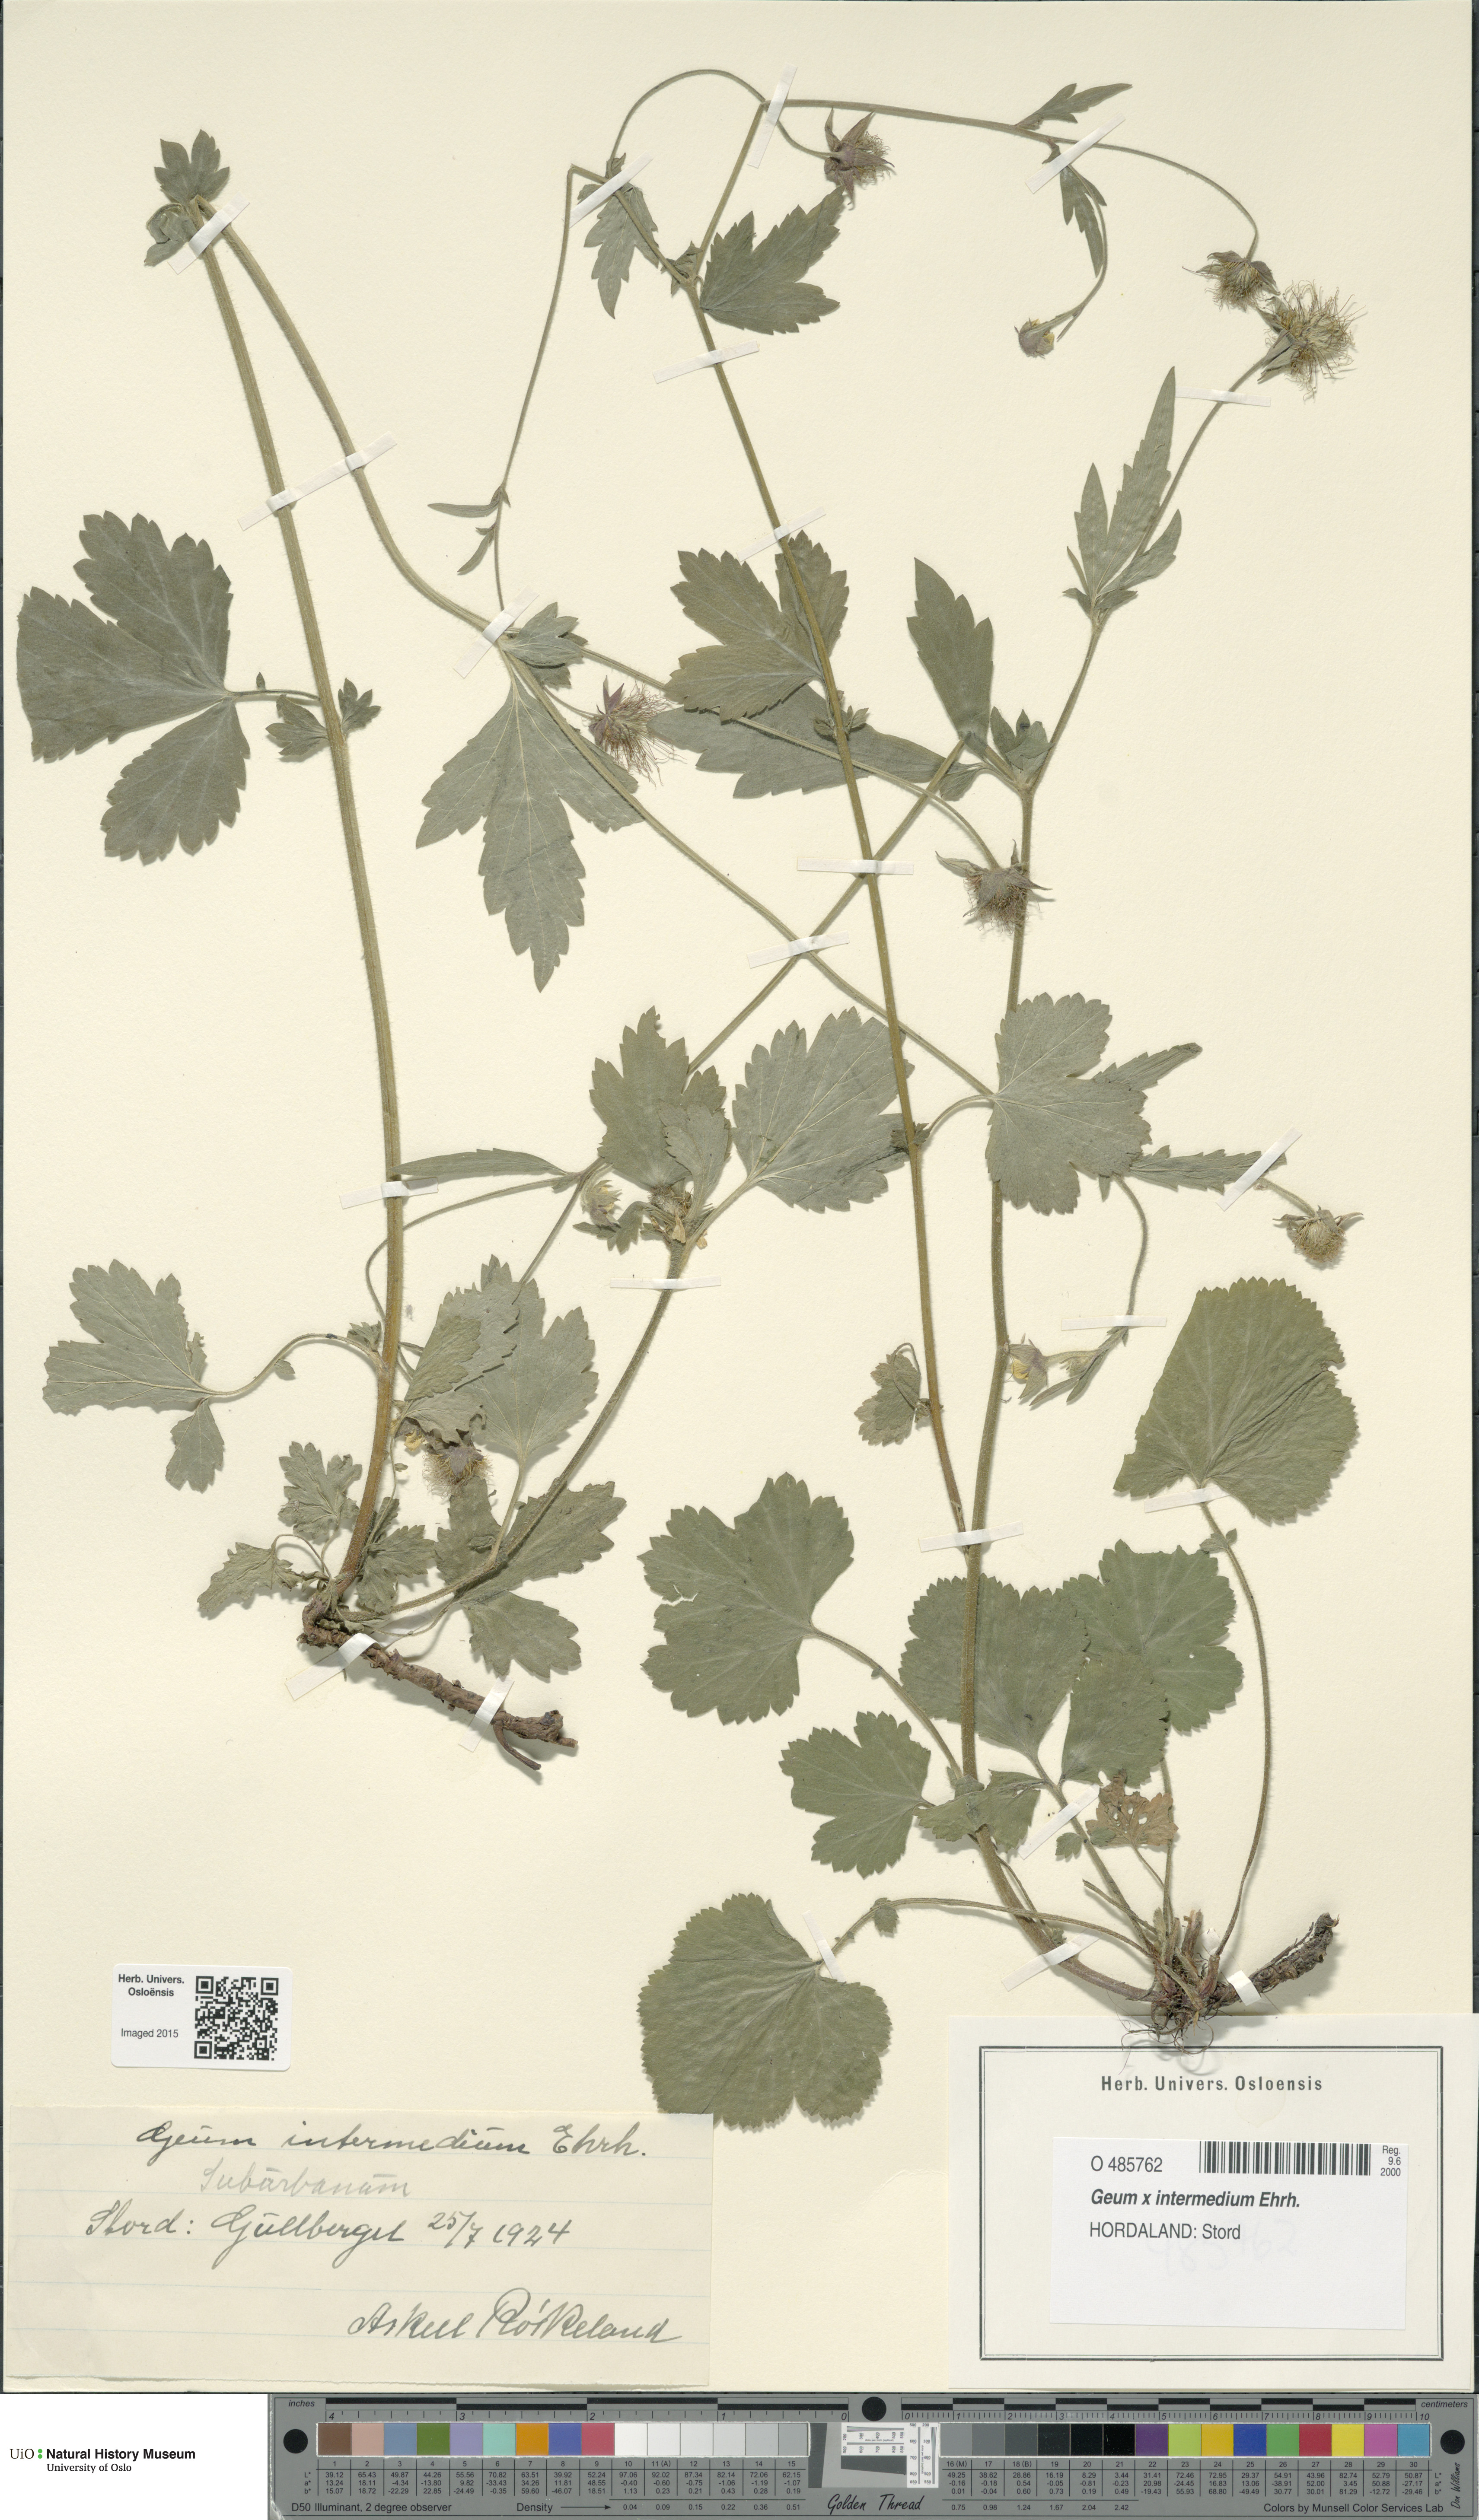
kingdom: Plantae
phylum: Tracheophyta
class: Magnoliopsida
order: Rosales
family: Rosaceae
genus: Geum
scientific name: Geum intermedium
